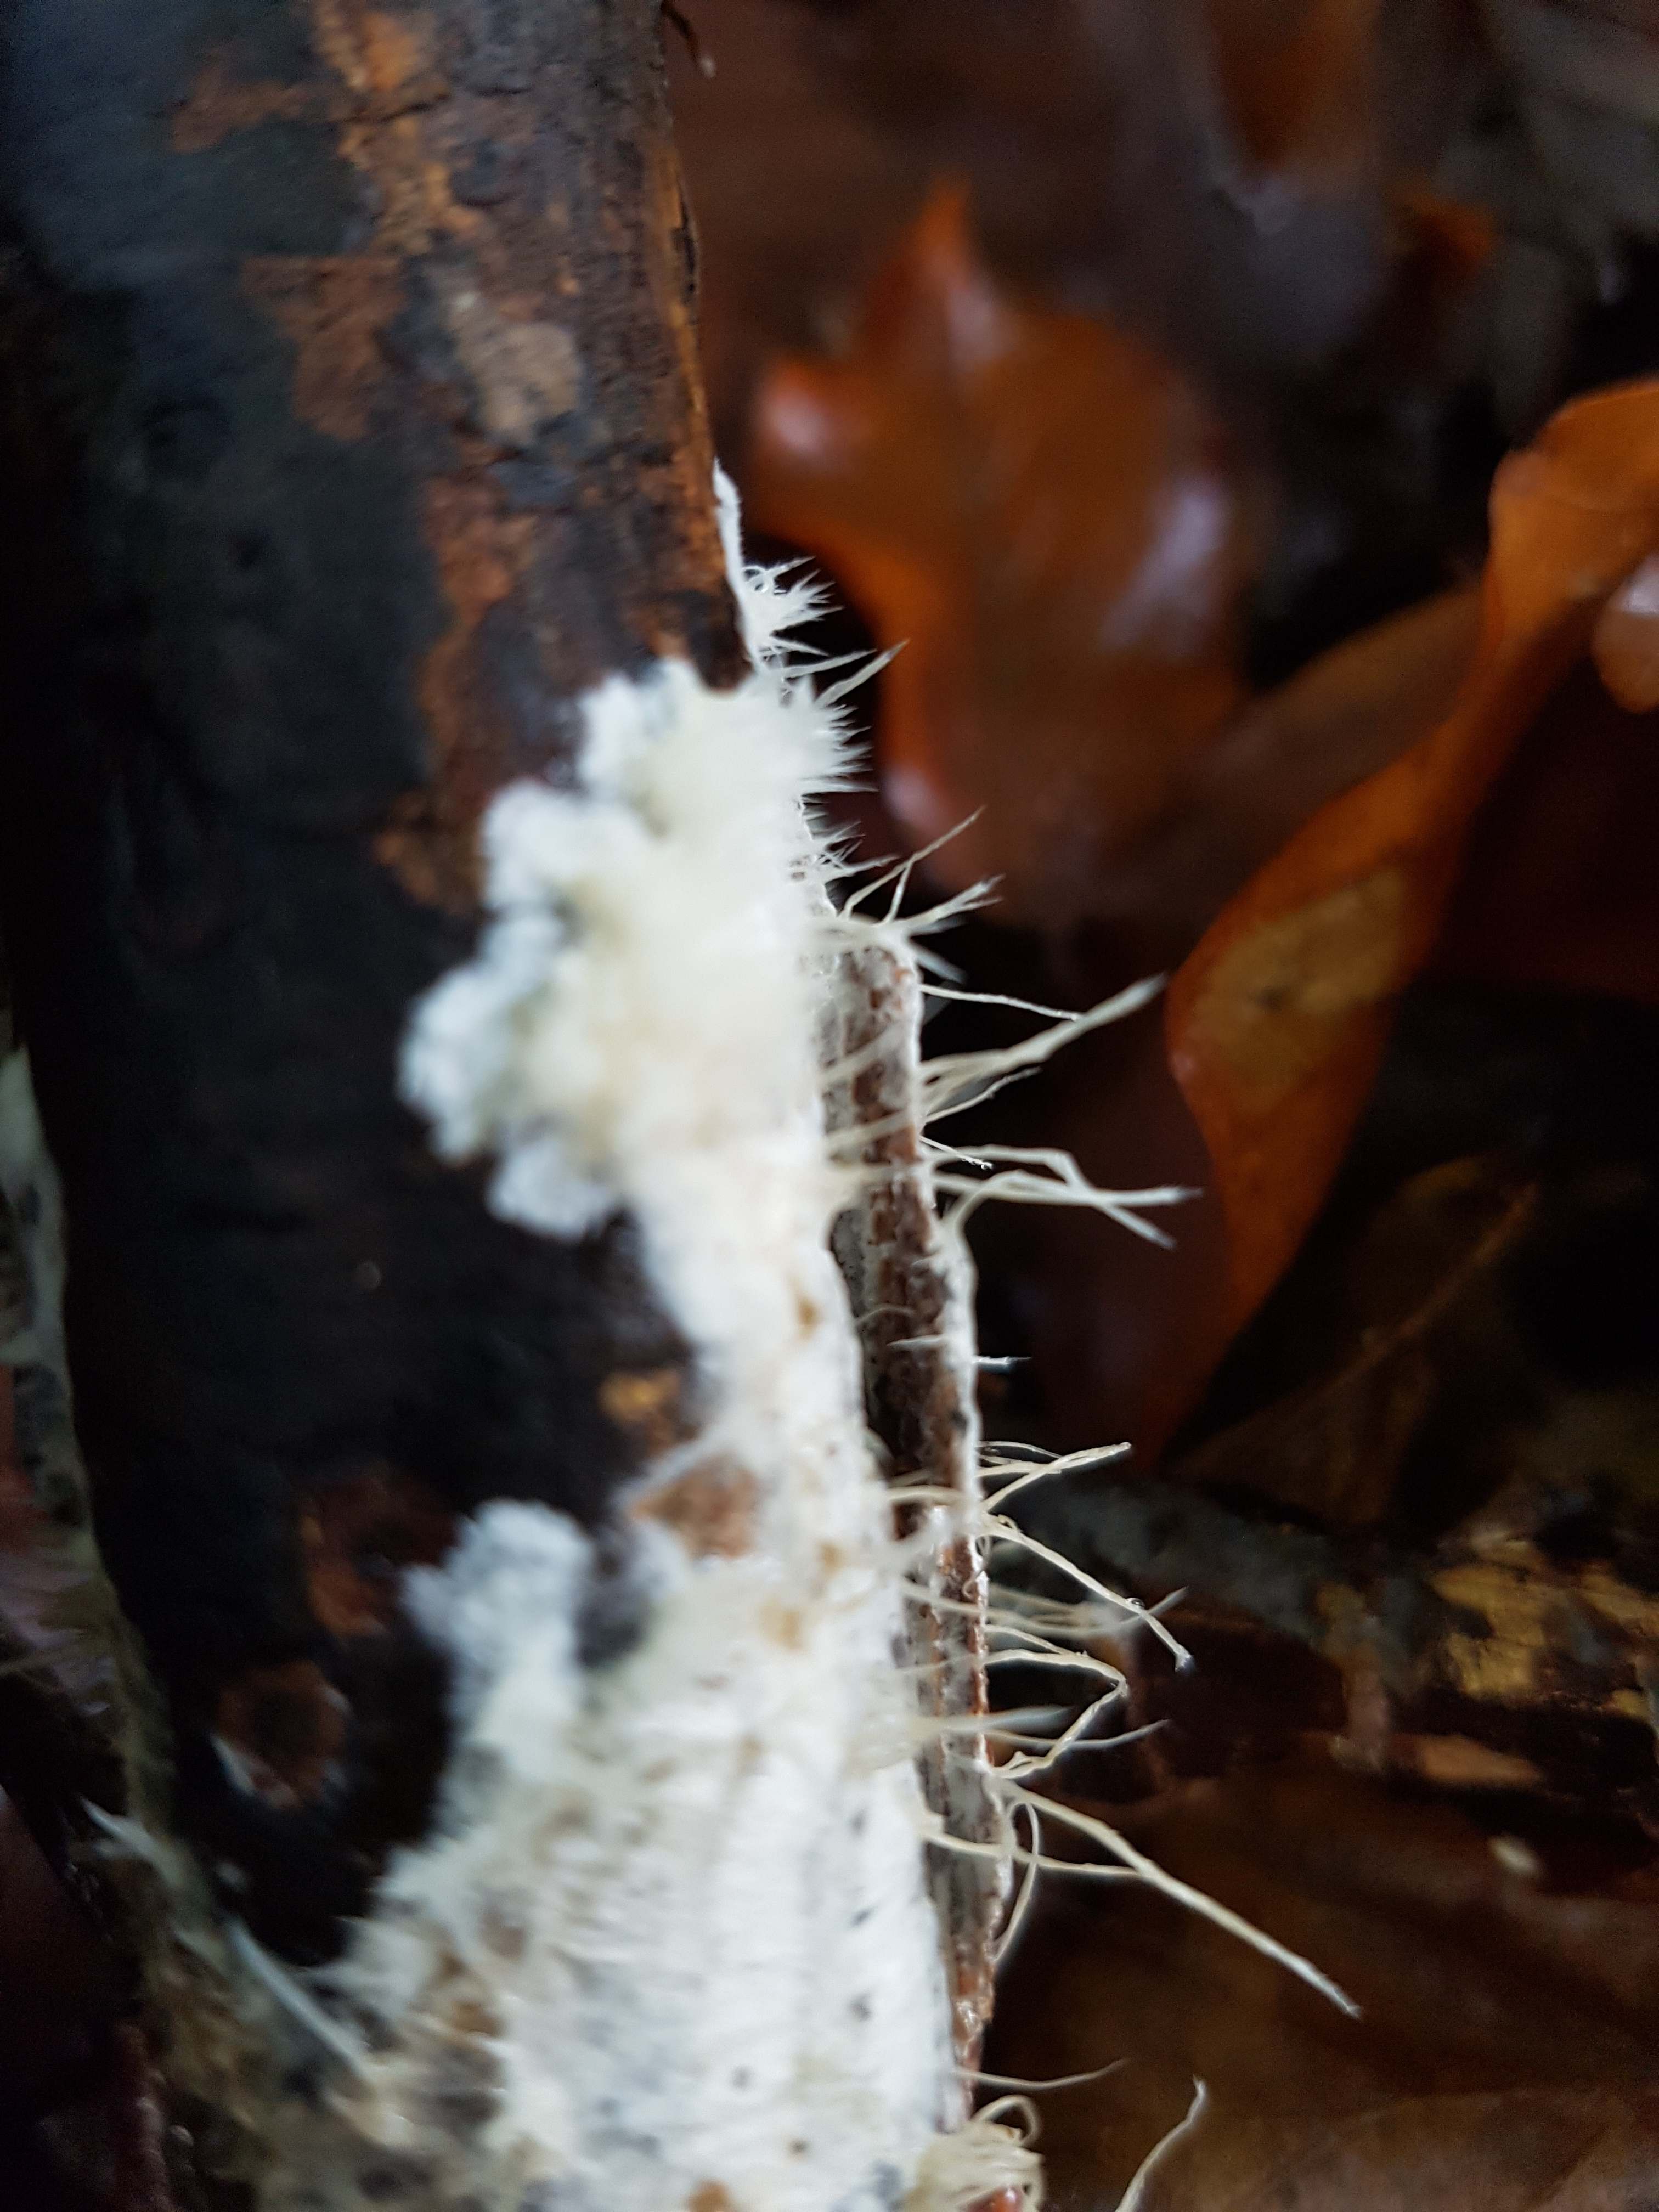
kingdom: Fungi
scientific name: Fungi
